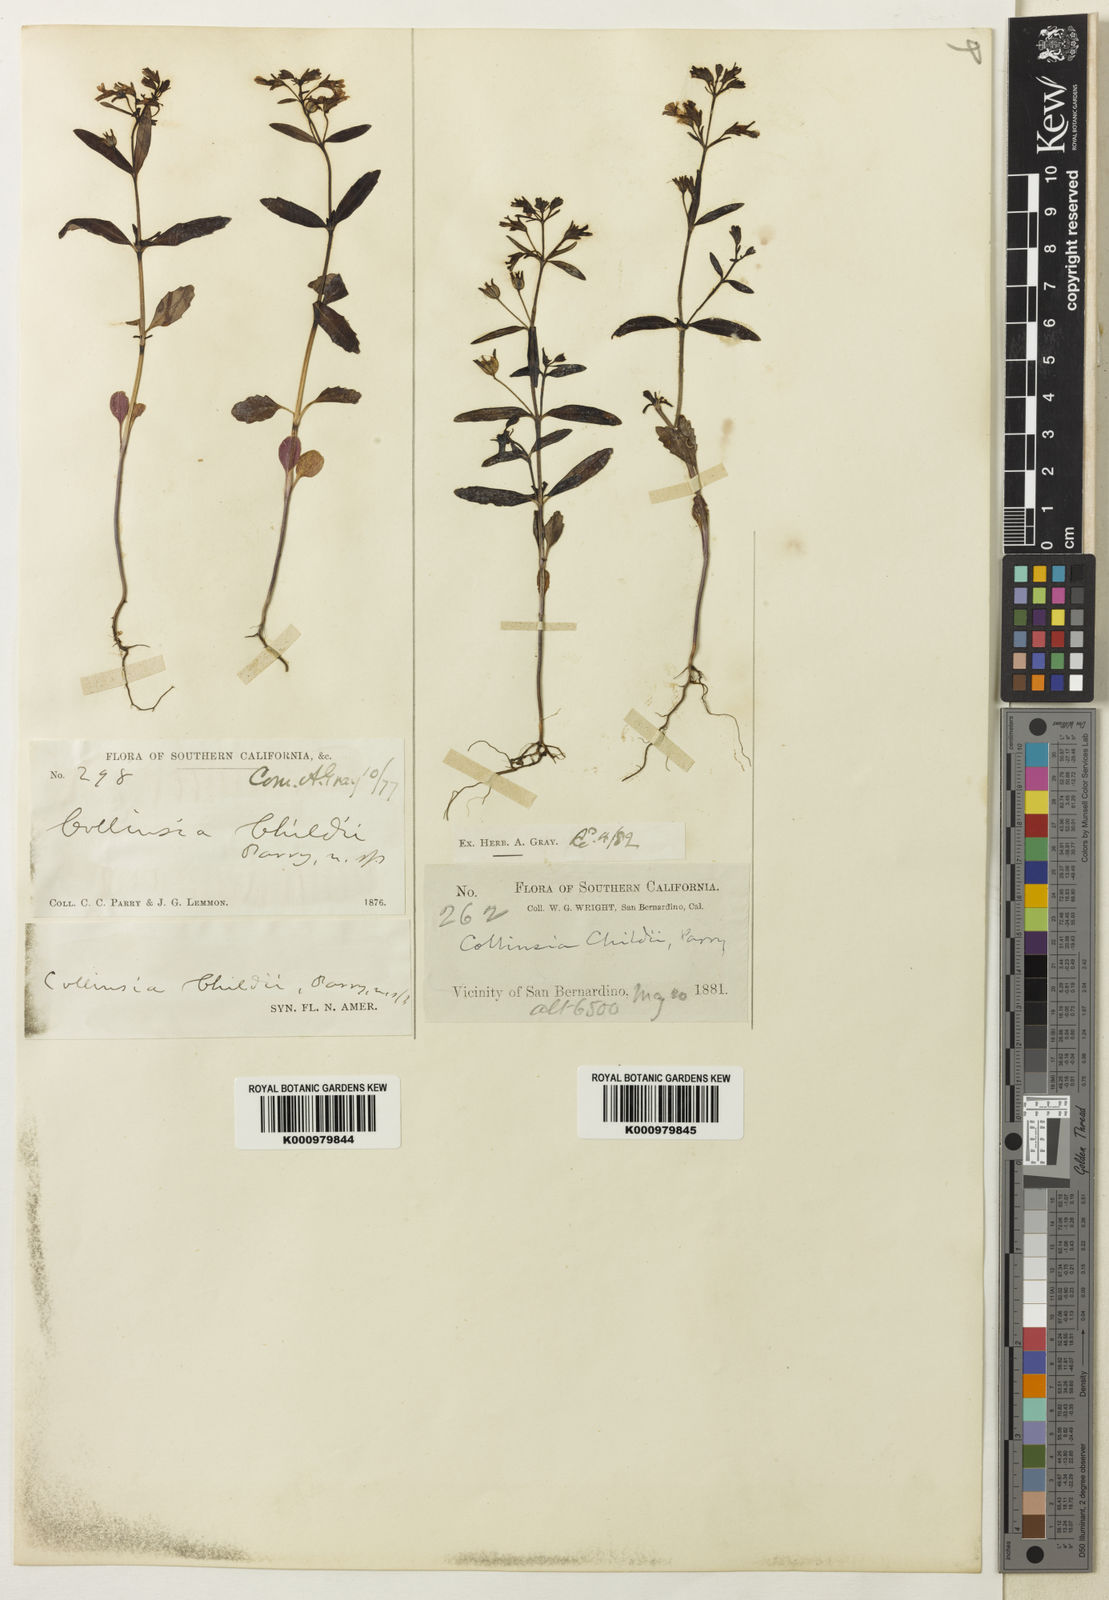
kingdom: Plantae
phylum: Tracheophyta
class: Magnoliopsida
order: Lamiales
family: Plantaginaceae
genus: Collinsia
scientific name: Collinsia childii
